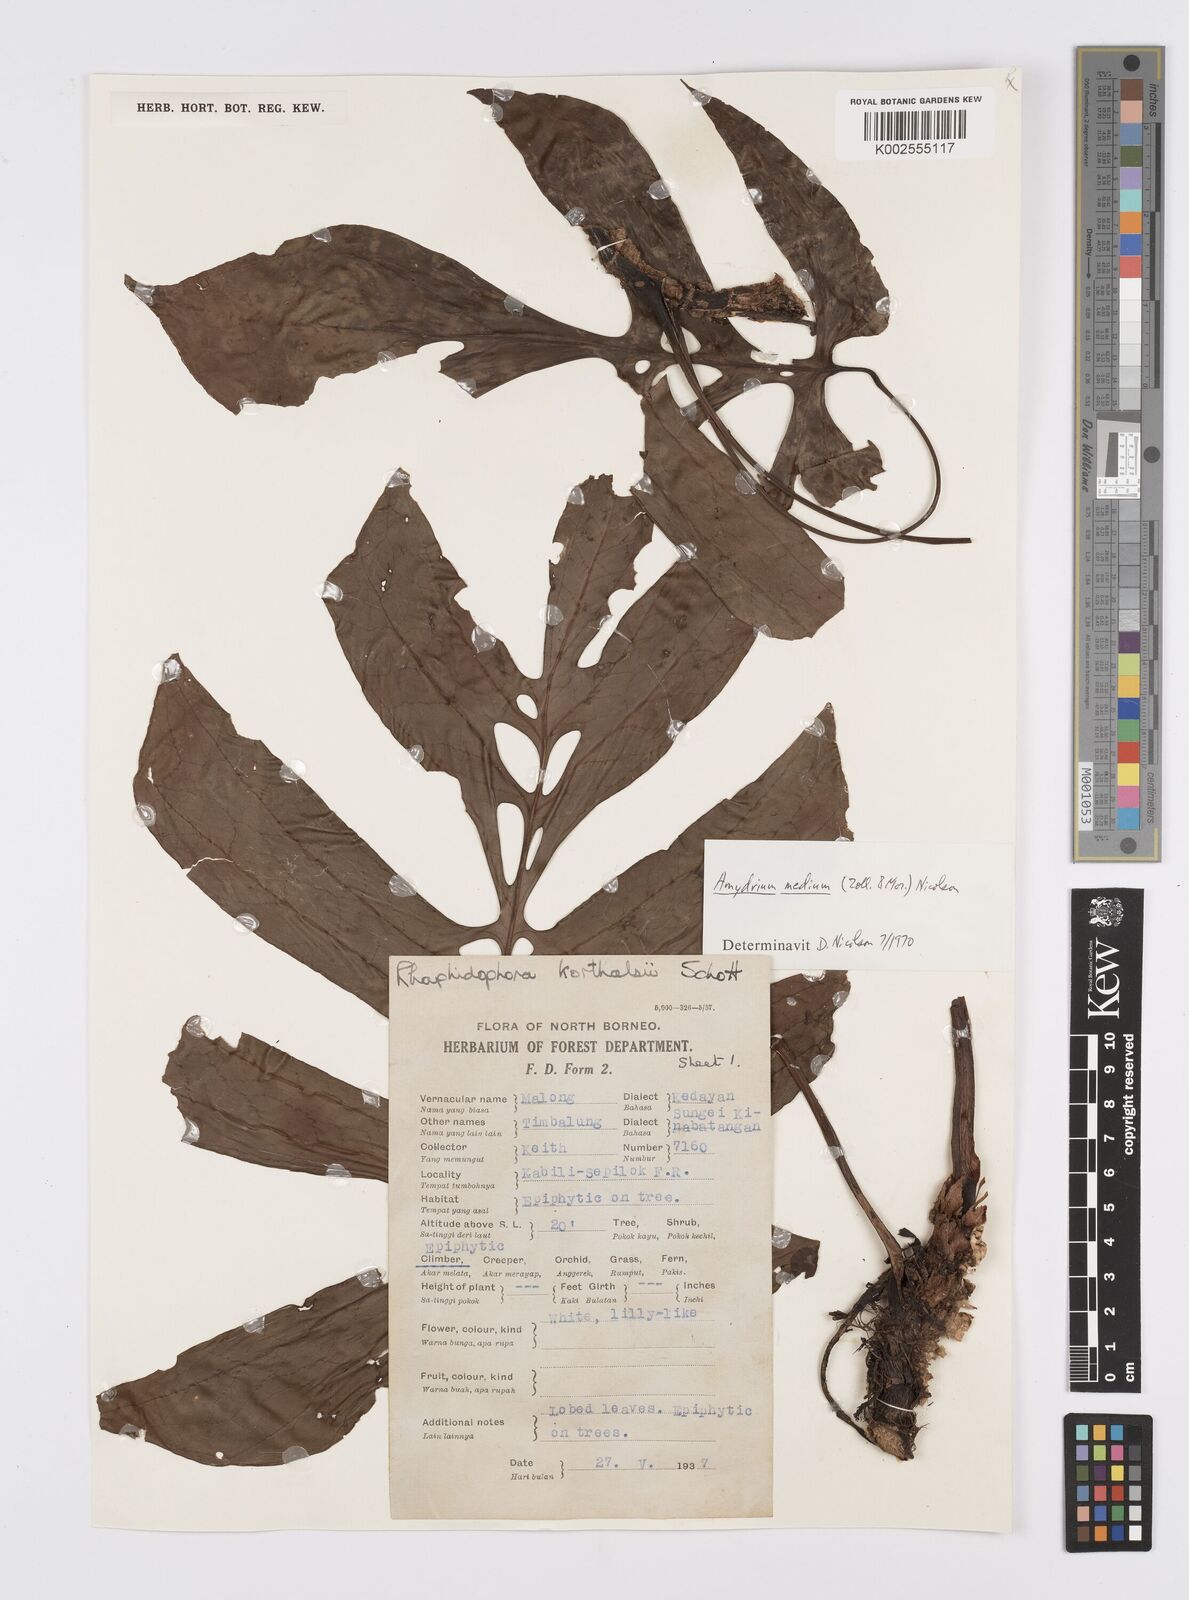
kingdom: Plantae
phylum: Tracheophyta
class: Liliopsida
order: Alismatales
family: Araceae
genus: Amydrium
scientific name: Amydrium medium
